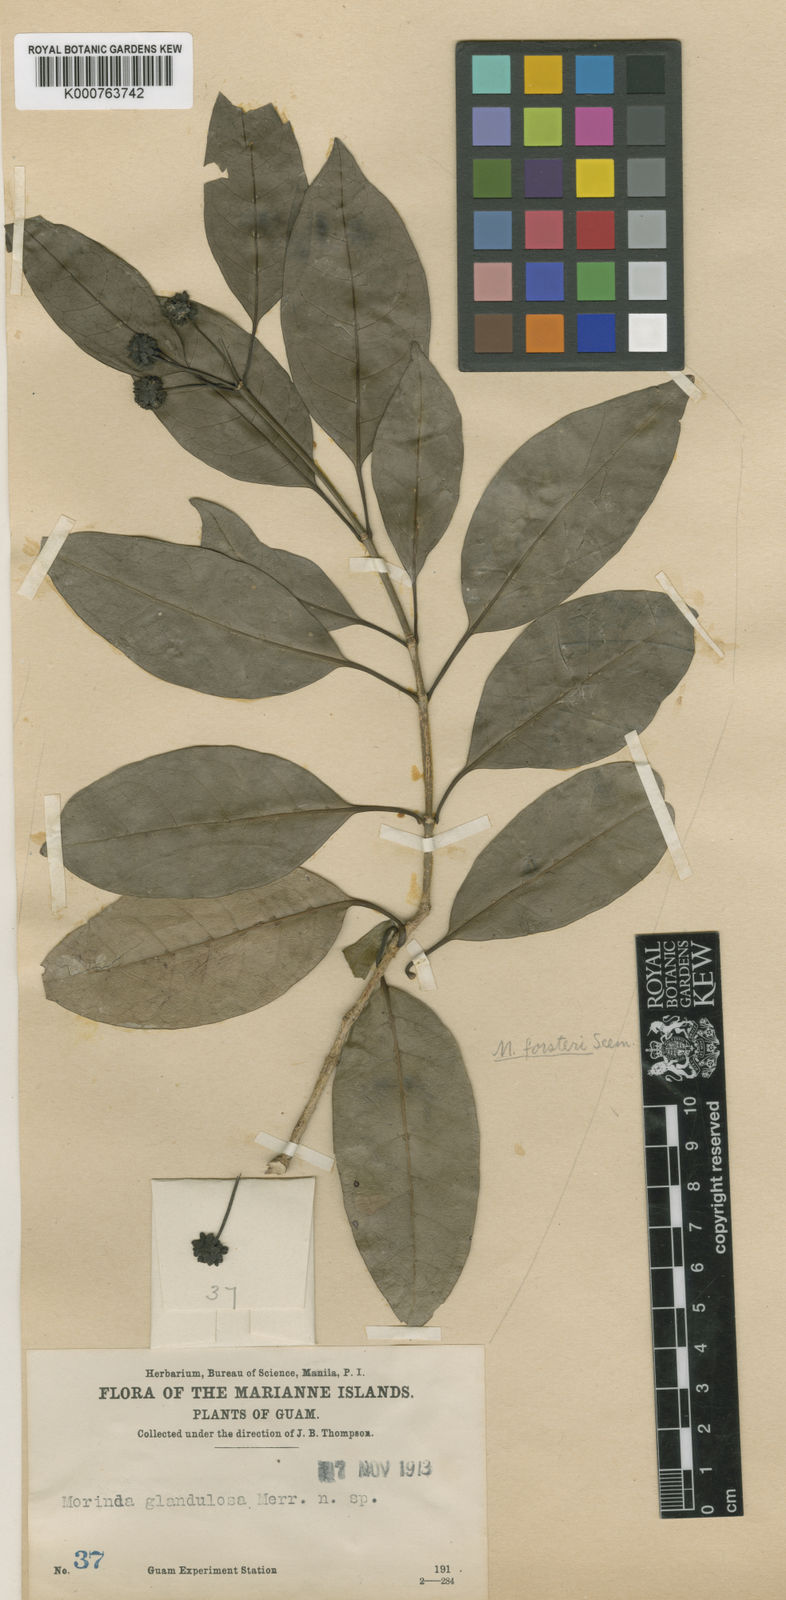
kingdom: Plantae
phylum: Tracheophyta
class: Magnoliopsida
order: Gentianales
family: Rubiaceae
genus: Morinda
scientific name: Morinda citrifolia
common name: Indian-mulberry
